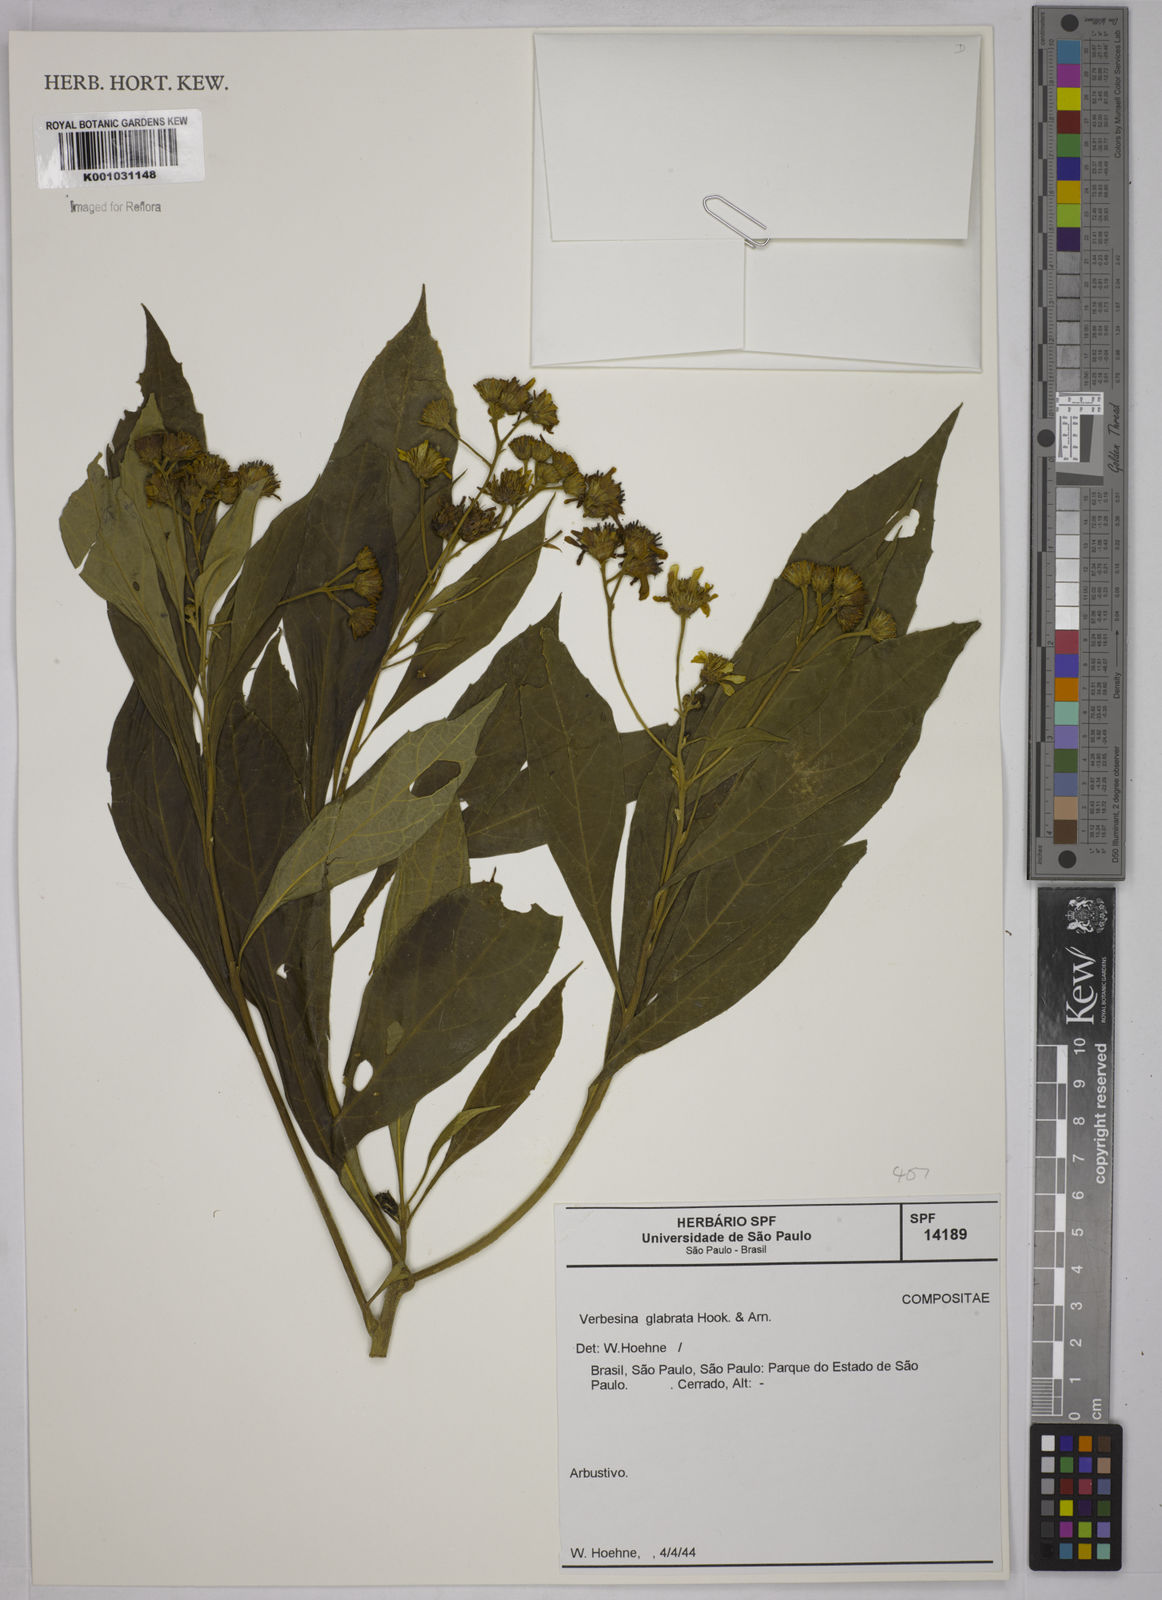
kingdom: Plantae
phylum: Tracheophyta
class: Magnoliopsida
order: Asterales
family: Asteraceae
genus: Verbesina
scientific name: Verbesina glabrata
